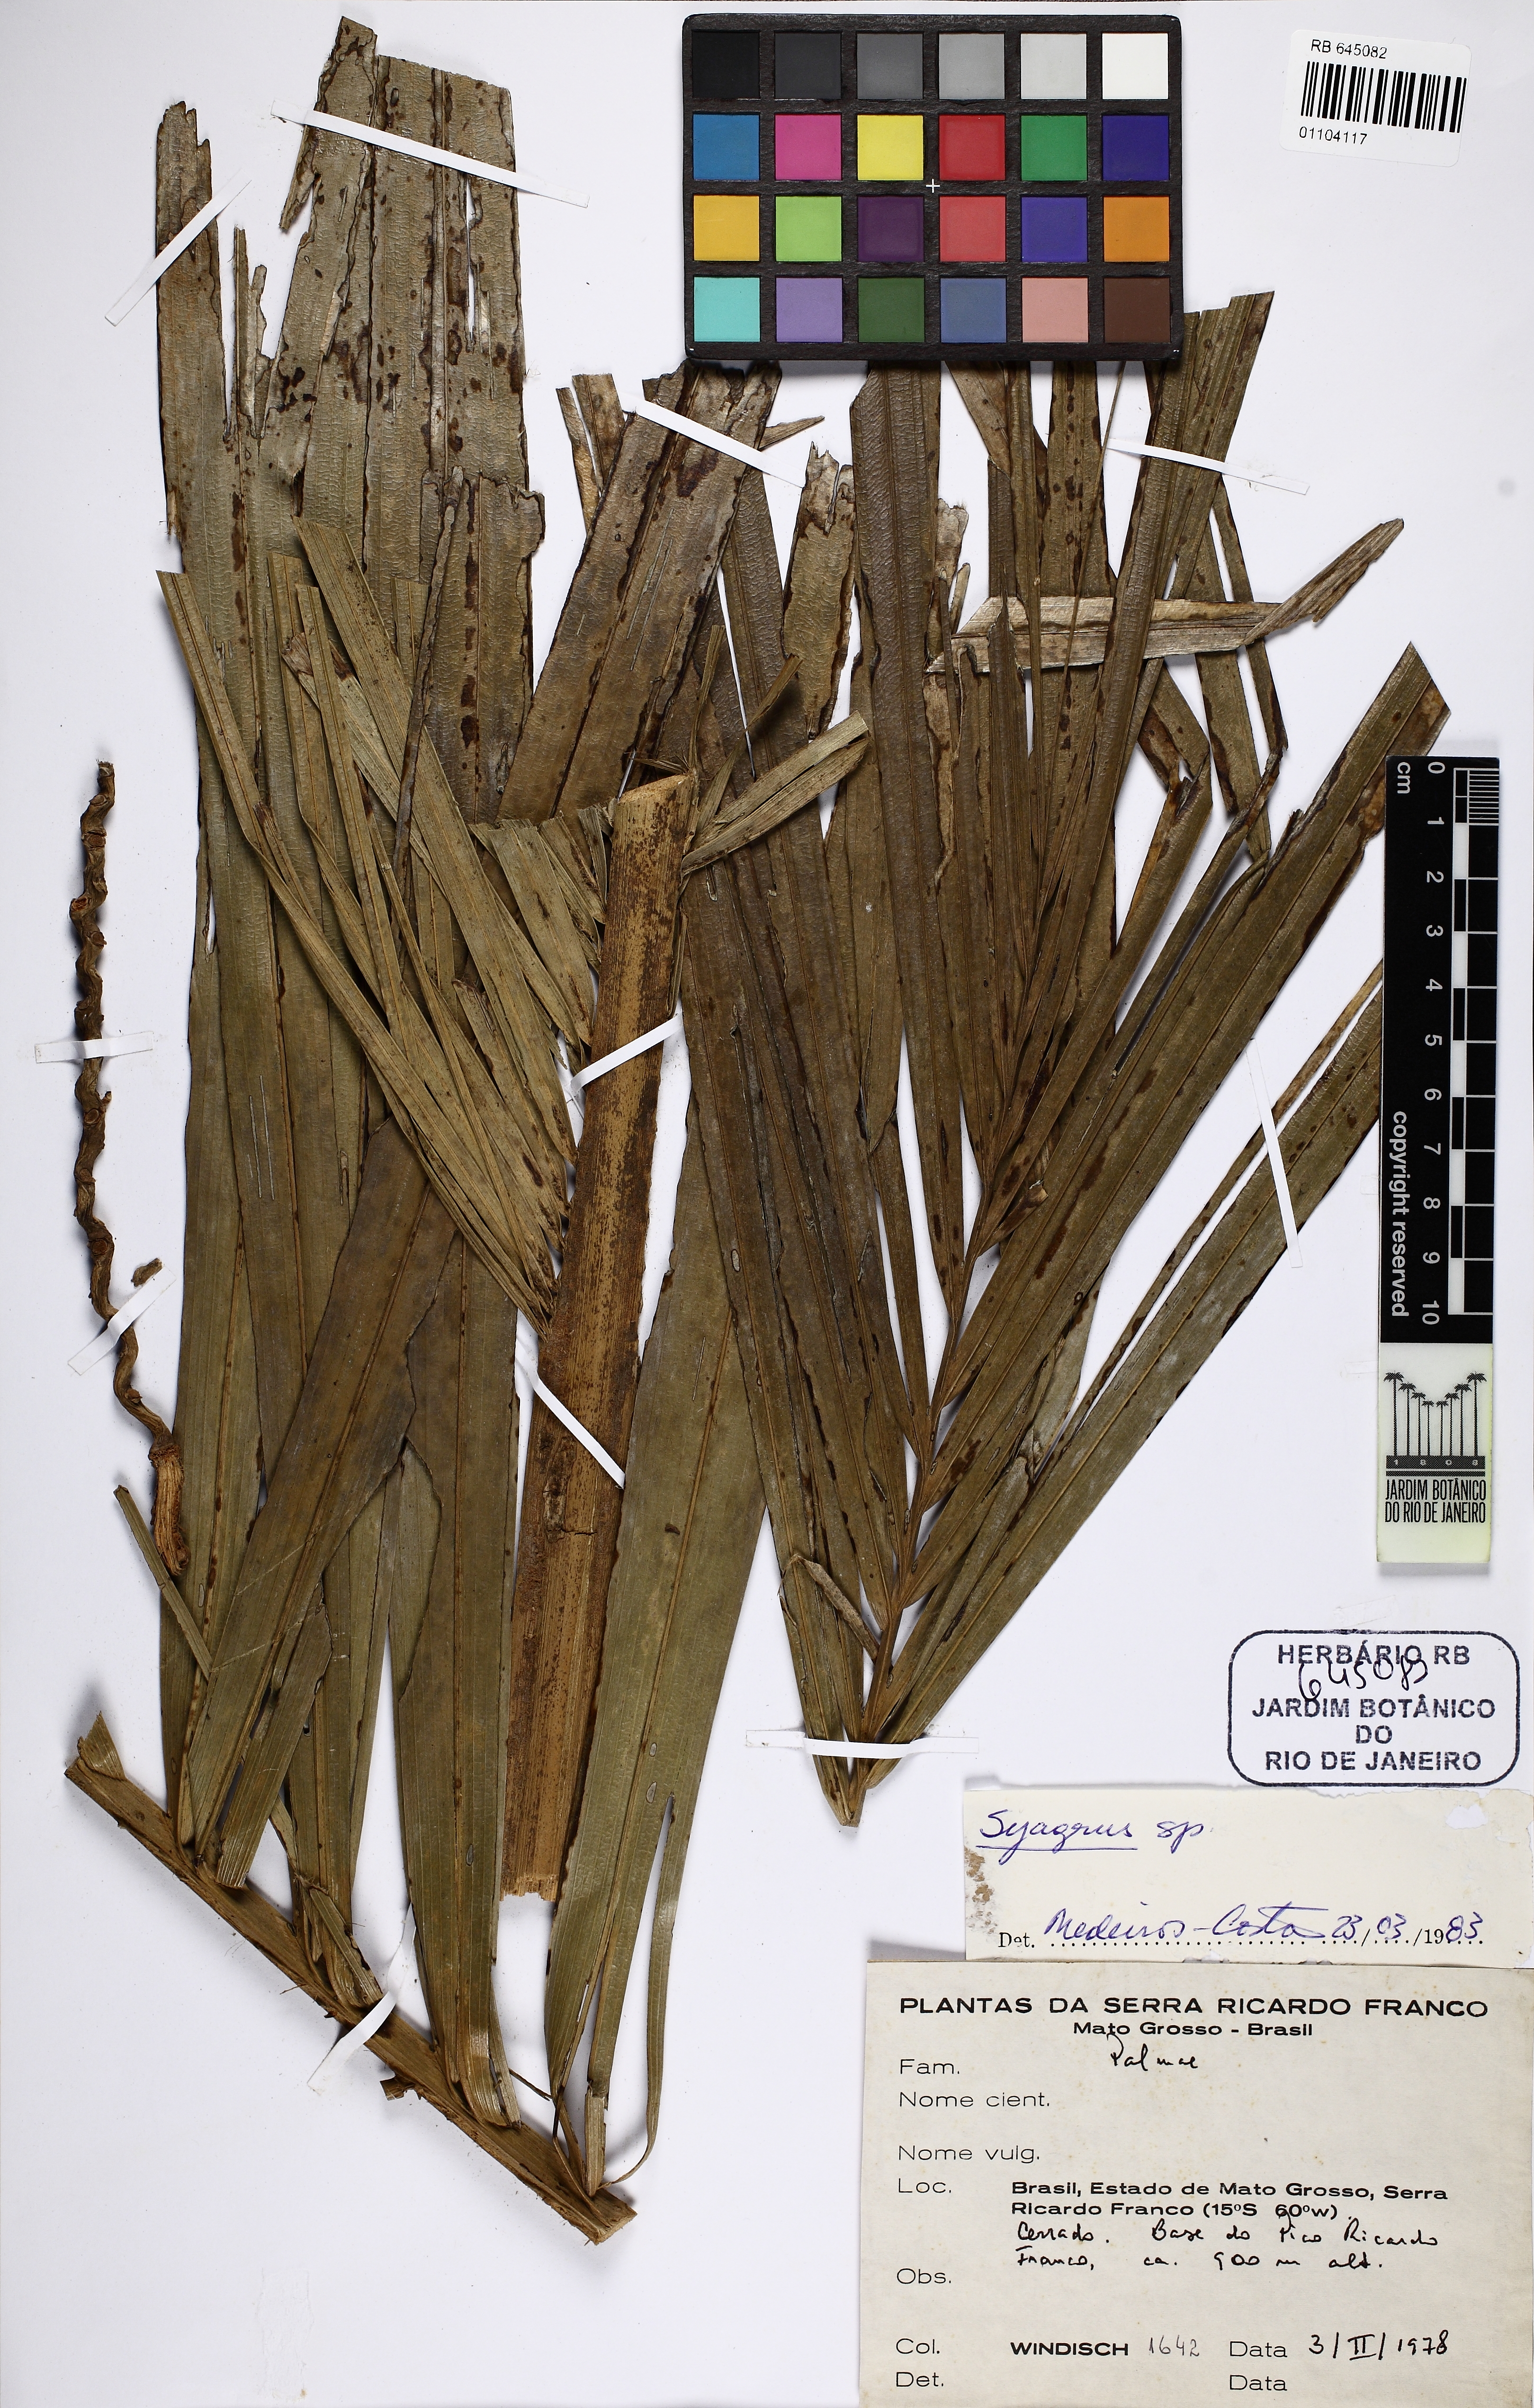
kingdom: Plantae
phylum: Tracheophyta
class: Liliopsida
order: Arecales
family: Arecaceae
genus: Syagrus
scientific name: Syagrus
